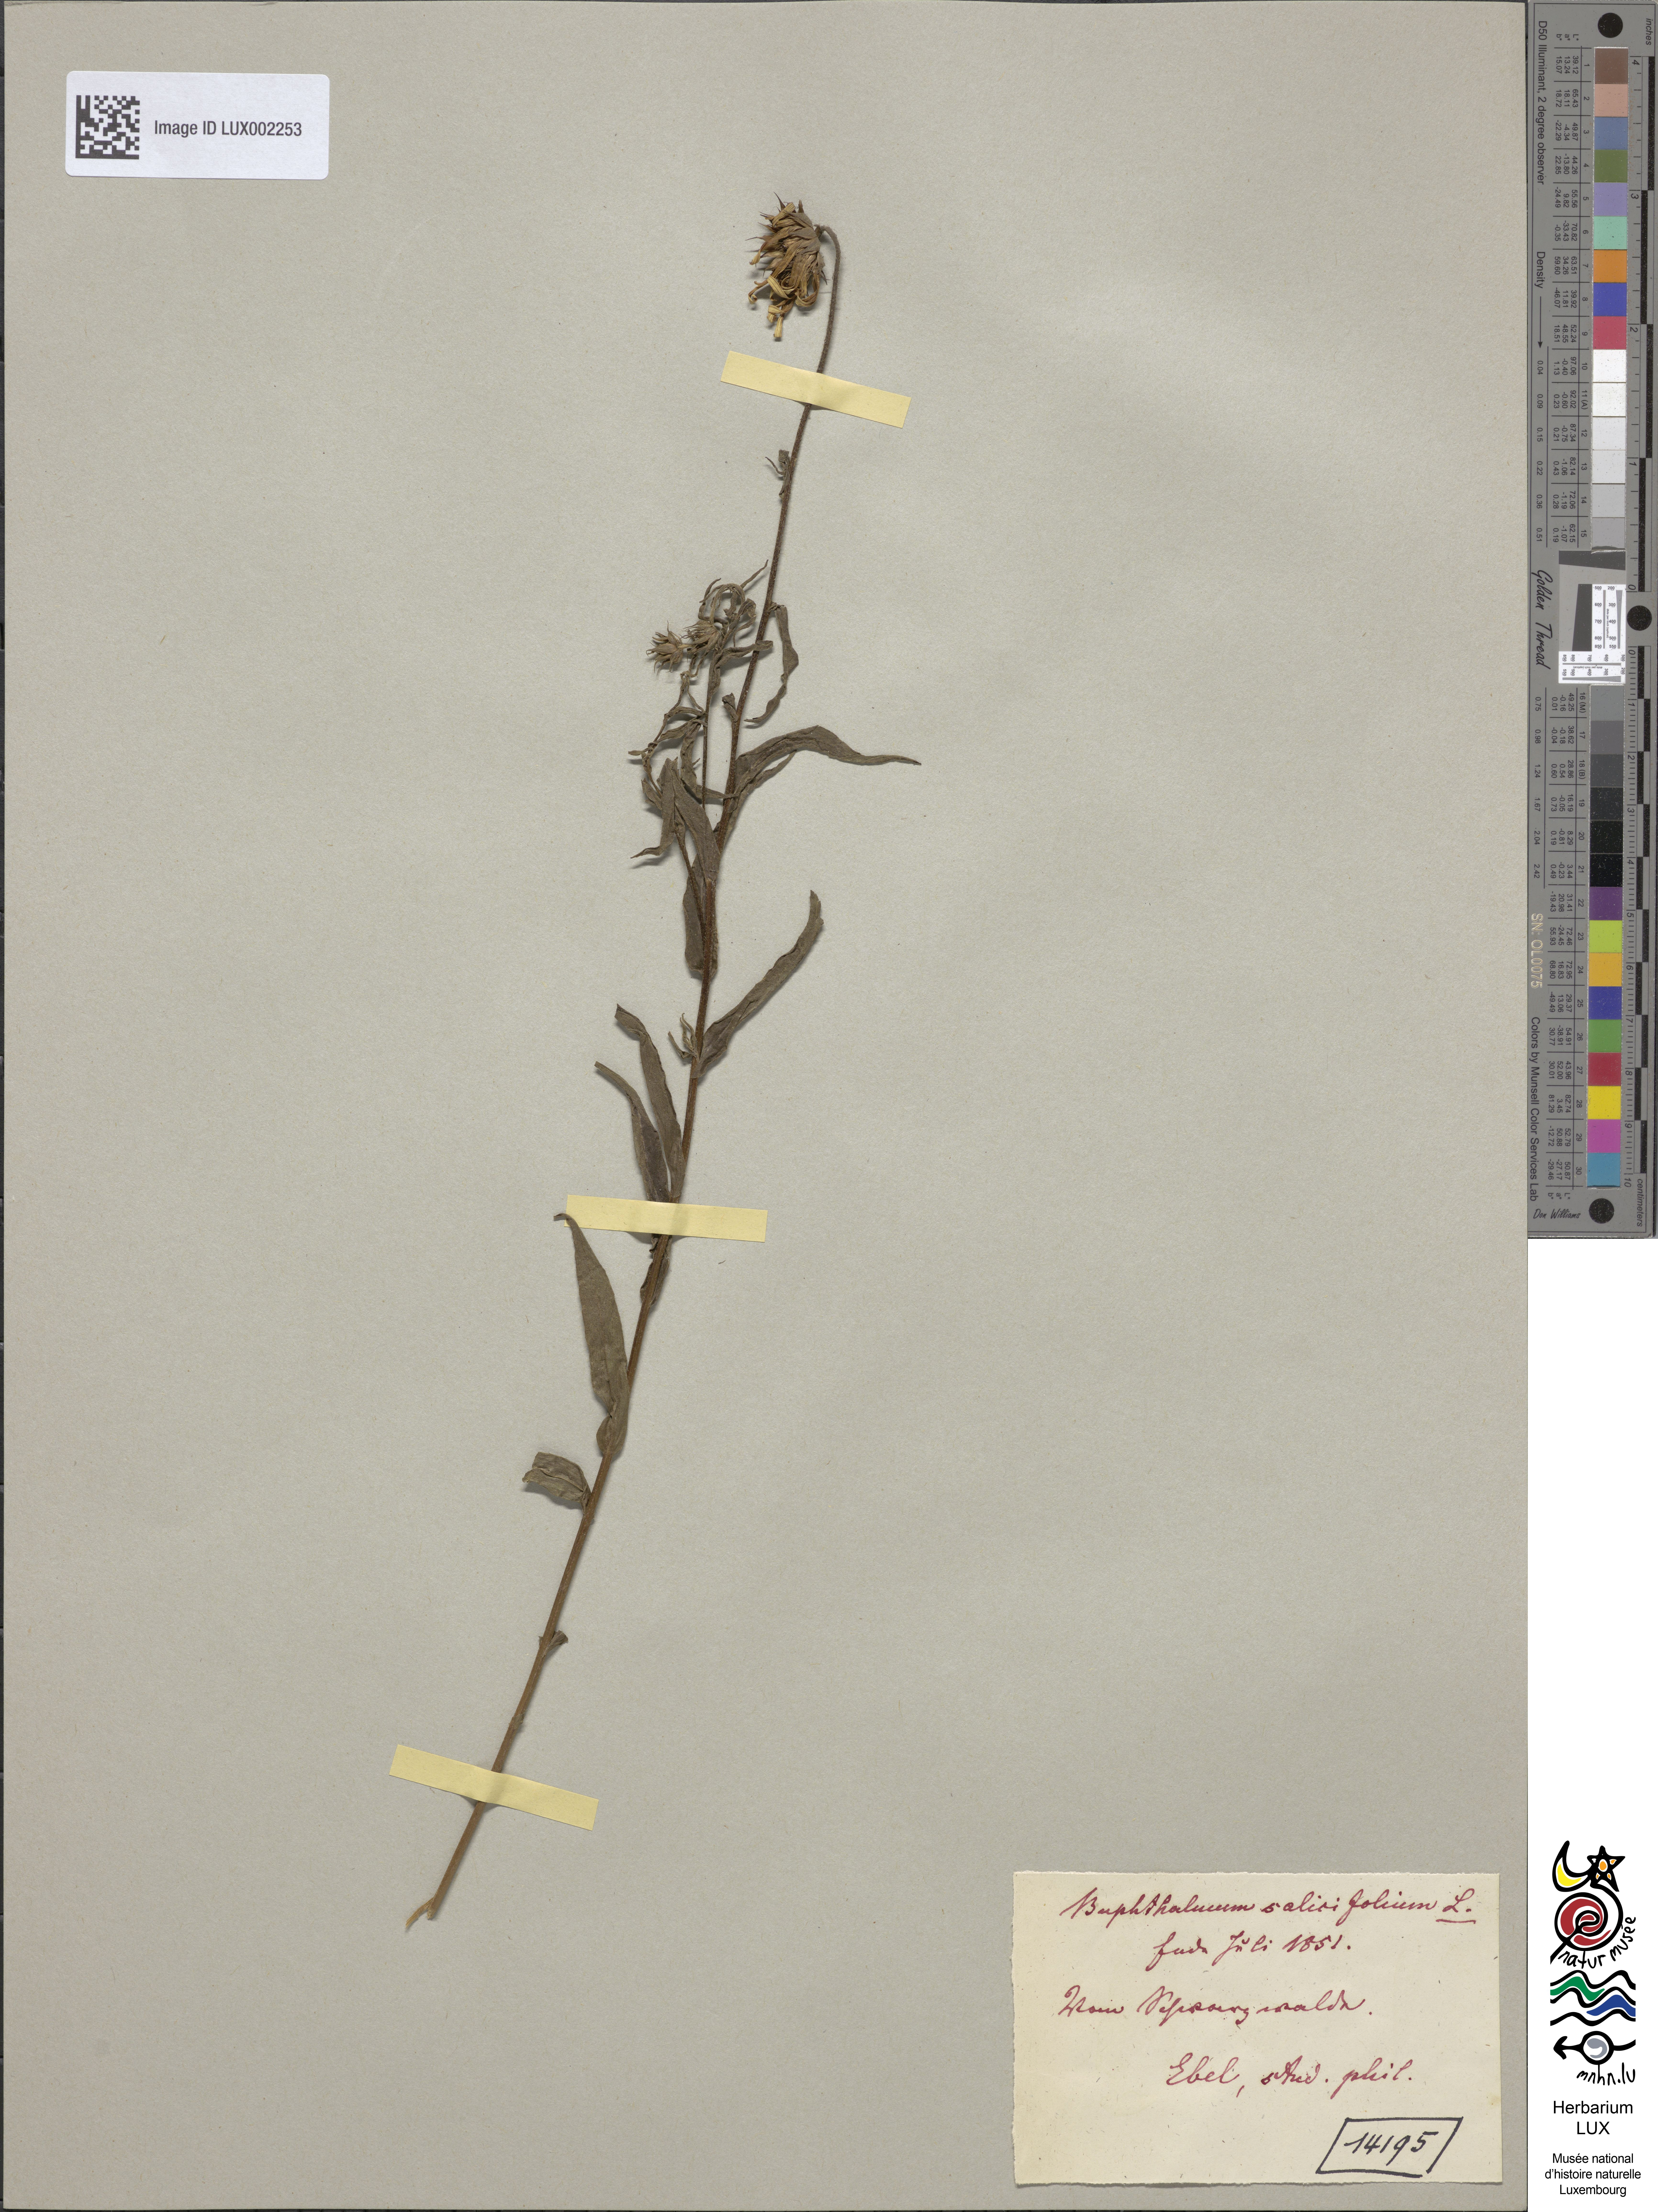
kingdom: Plantae
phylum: Tracheophyta
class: Magnoliopsida
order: Asterales
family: Asteraceae
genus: Buphthalmum
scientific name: Buphthalmum salicifolium
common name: Willow-leaved yellow-oxeye
